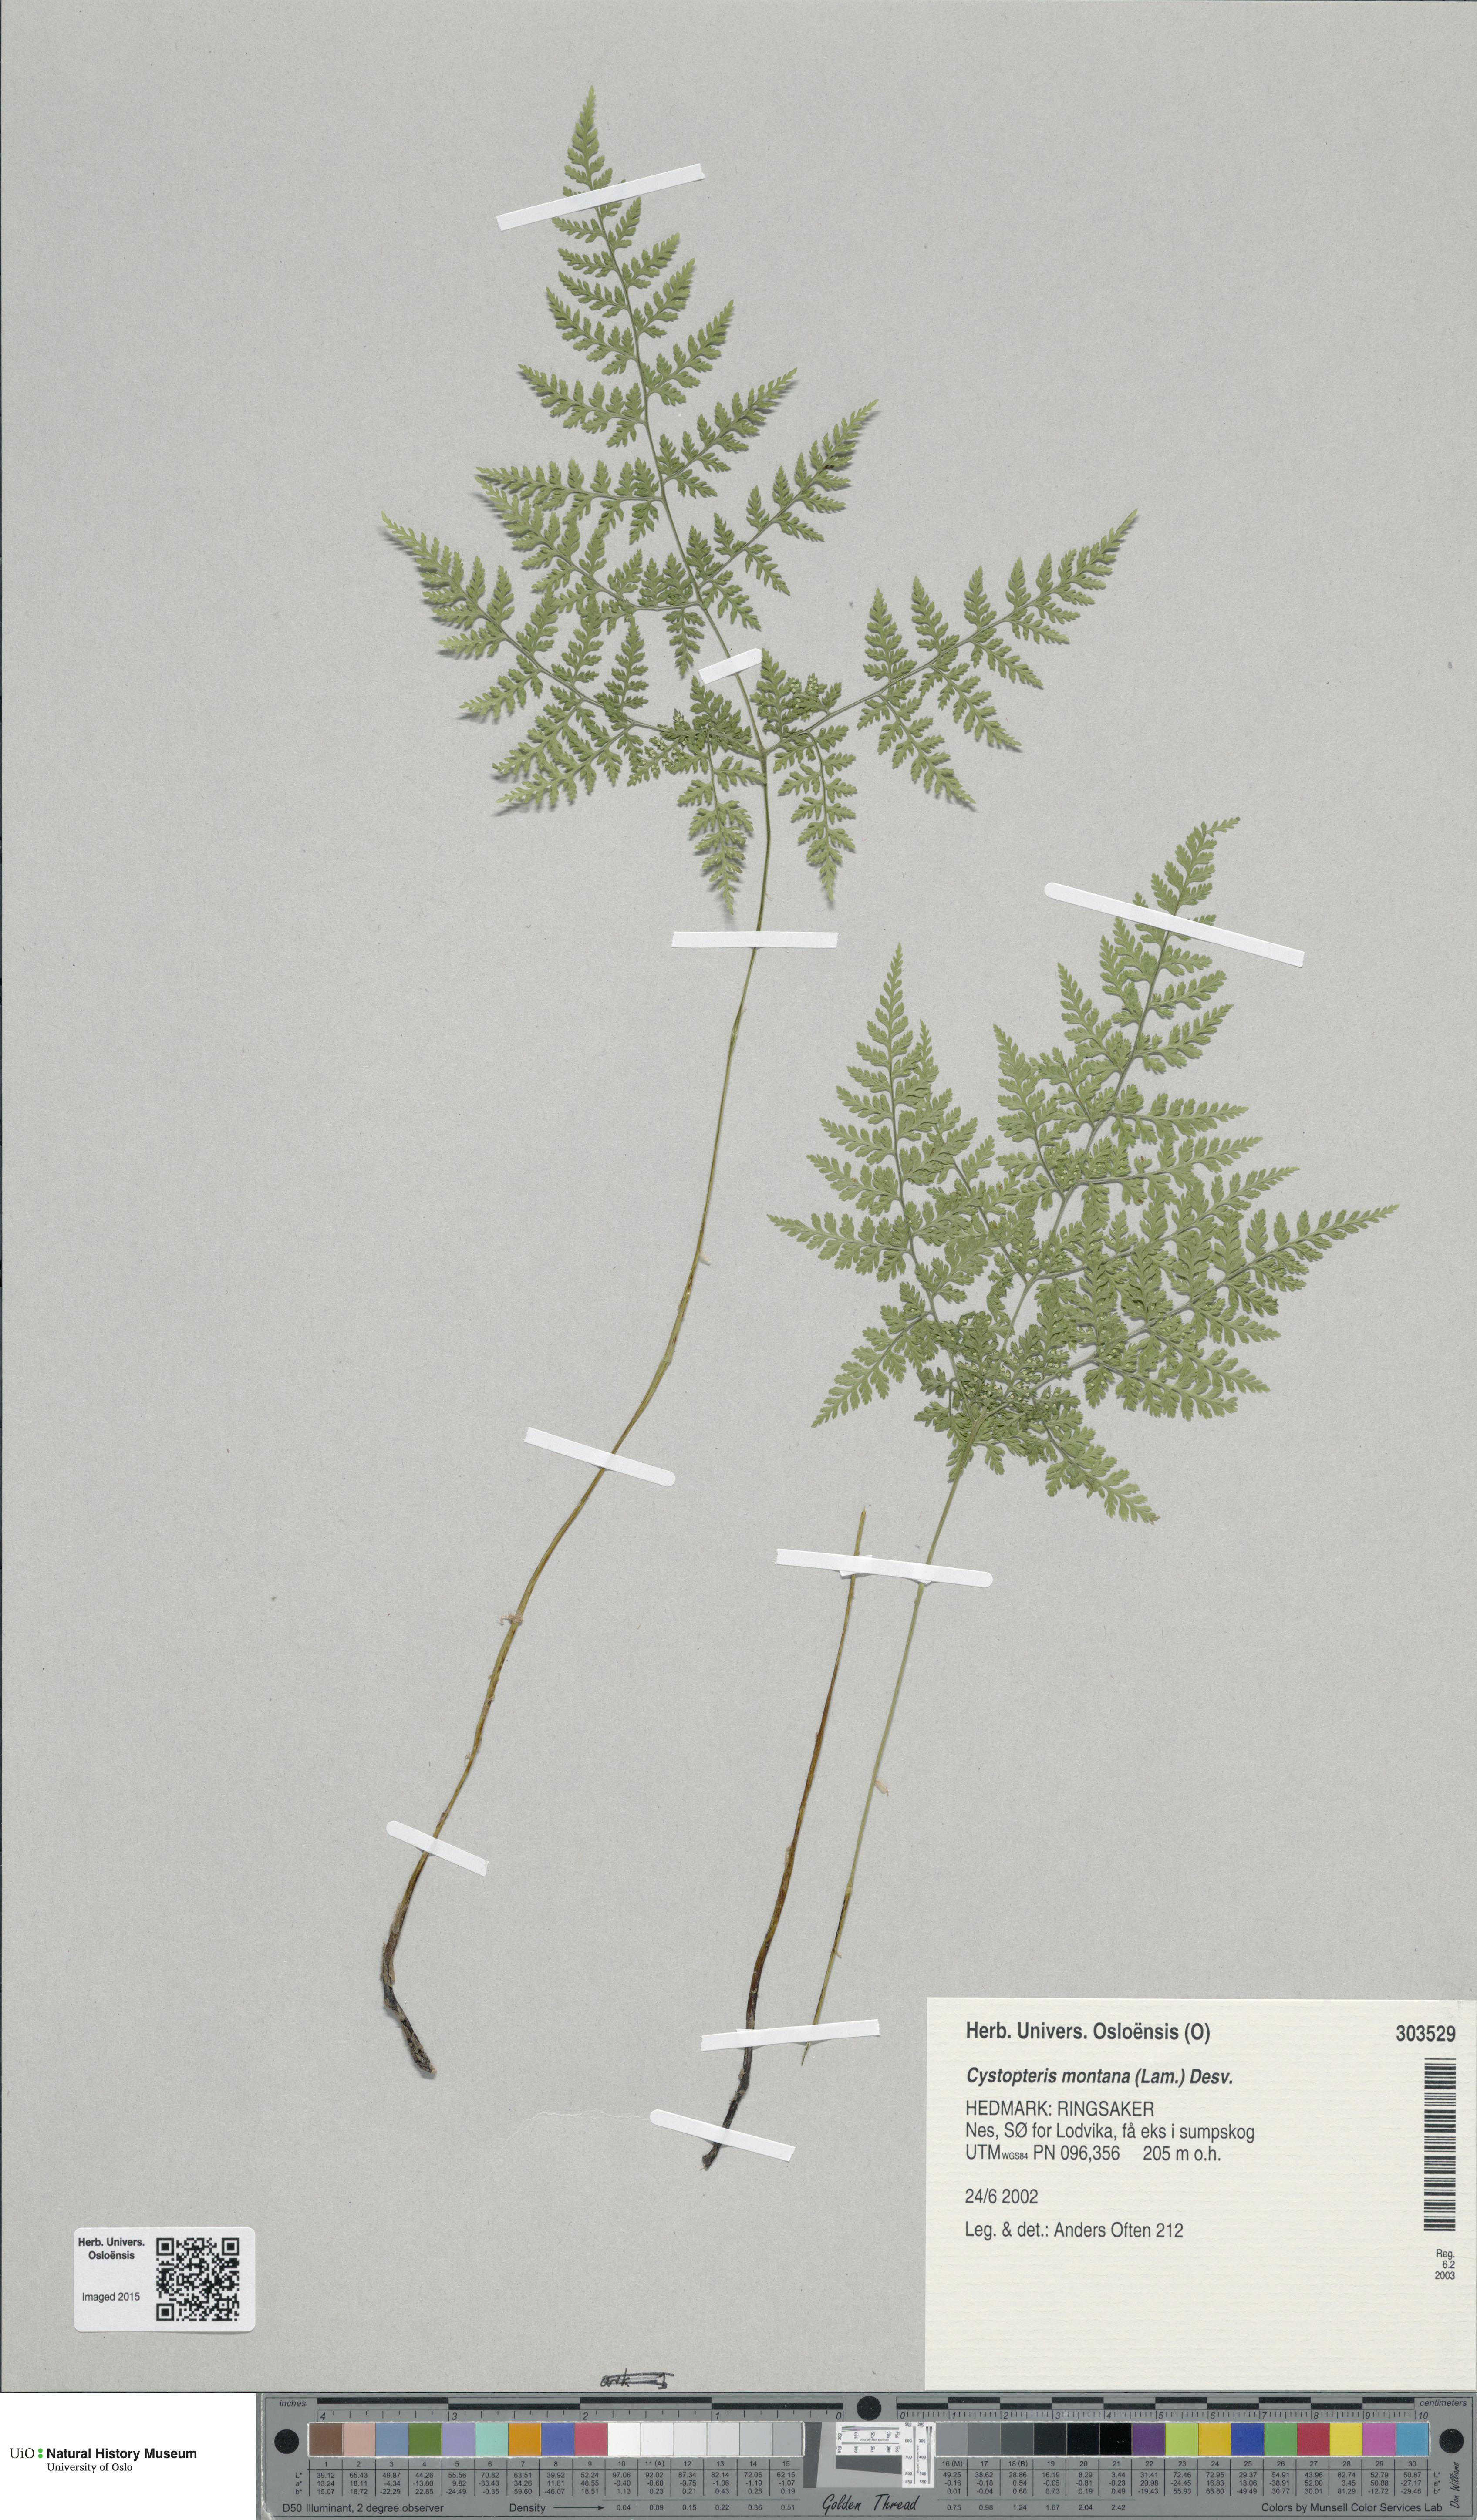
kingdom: Plantae
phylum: Tracheophyta
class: Polypodiopsida
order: Polypodiales
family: Cystopteridaceae
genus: Cystopteris
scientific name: Cystopteris montana
